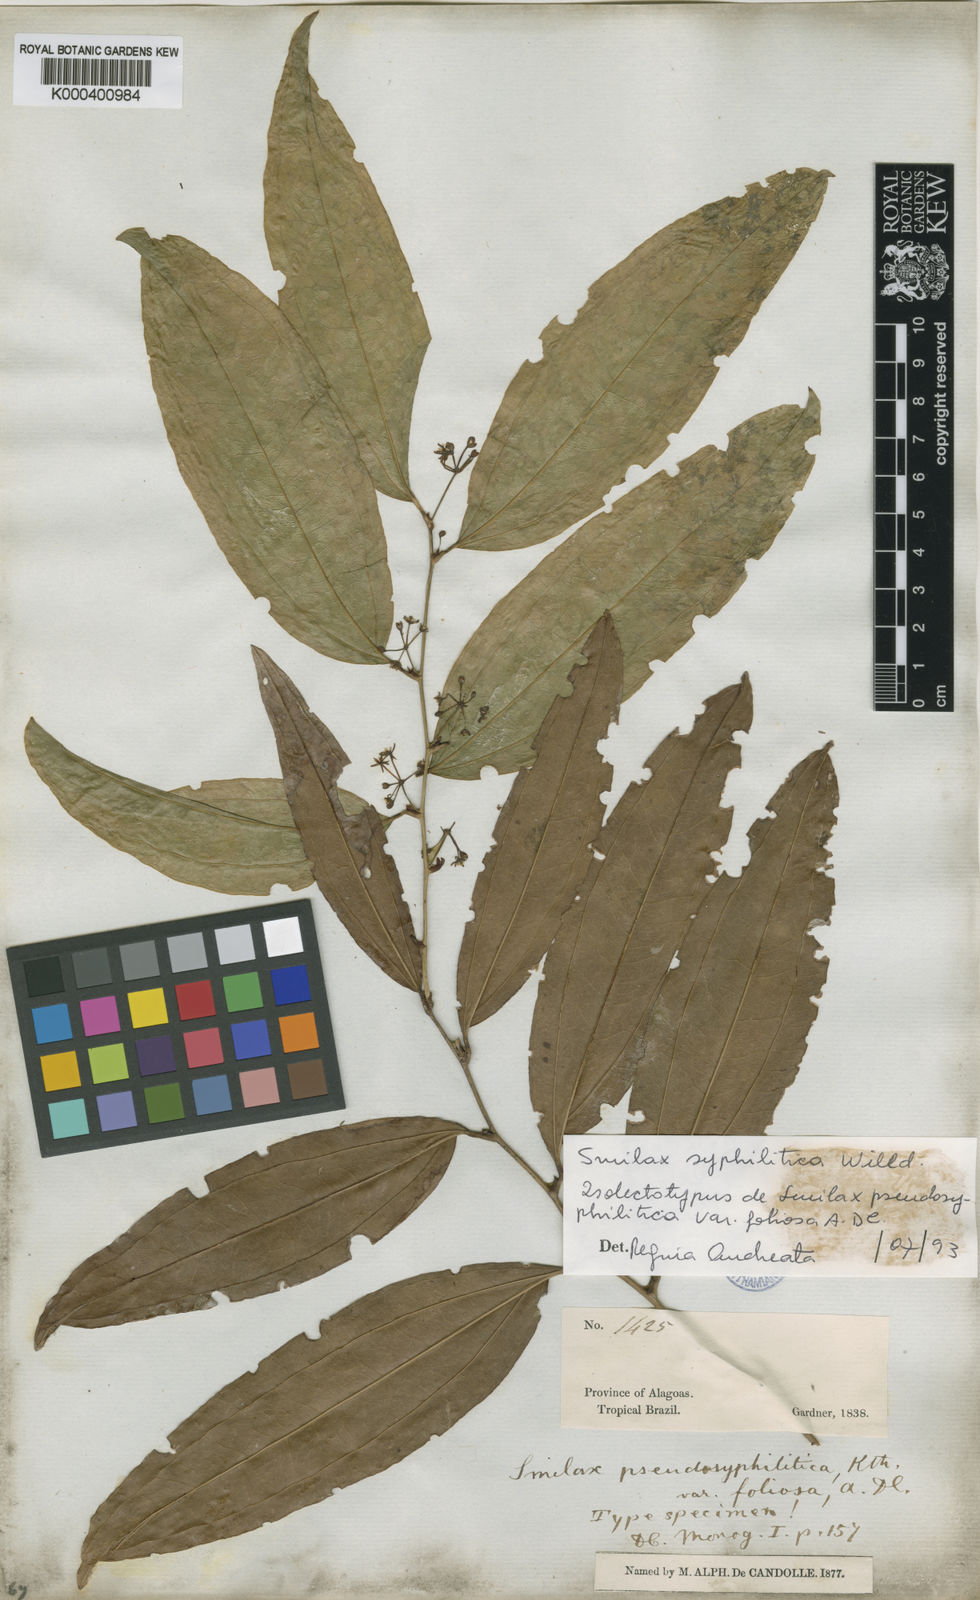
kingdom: Plantae
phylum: Tracheophyta
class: Liliopsida
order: Liliales
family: Smilacaceae
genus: Smilax
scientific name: Smilax siphilitica
